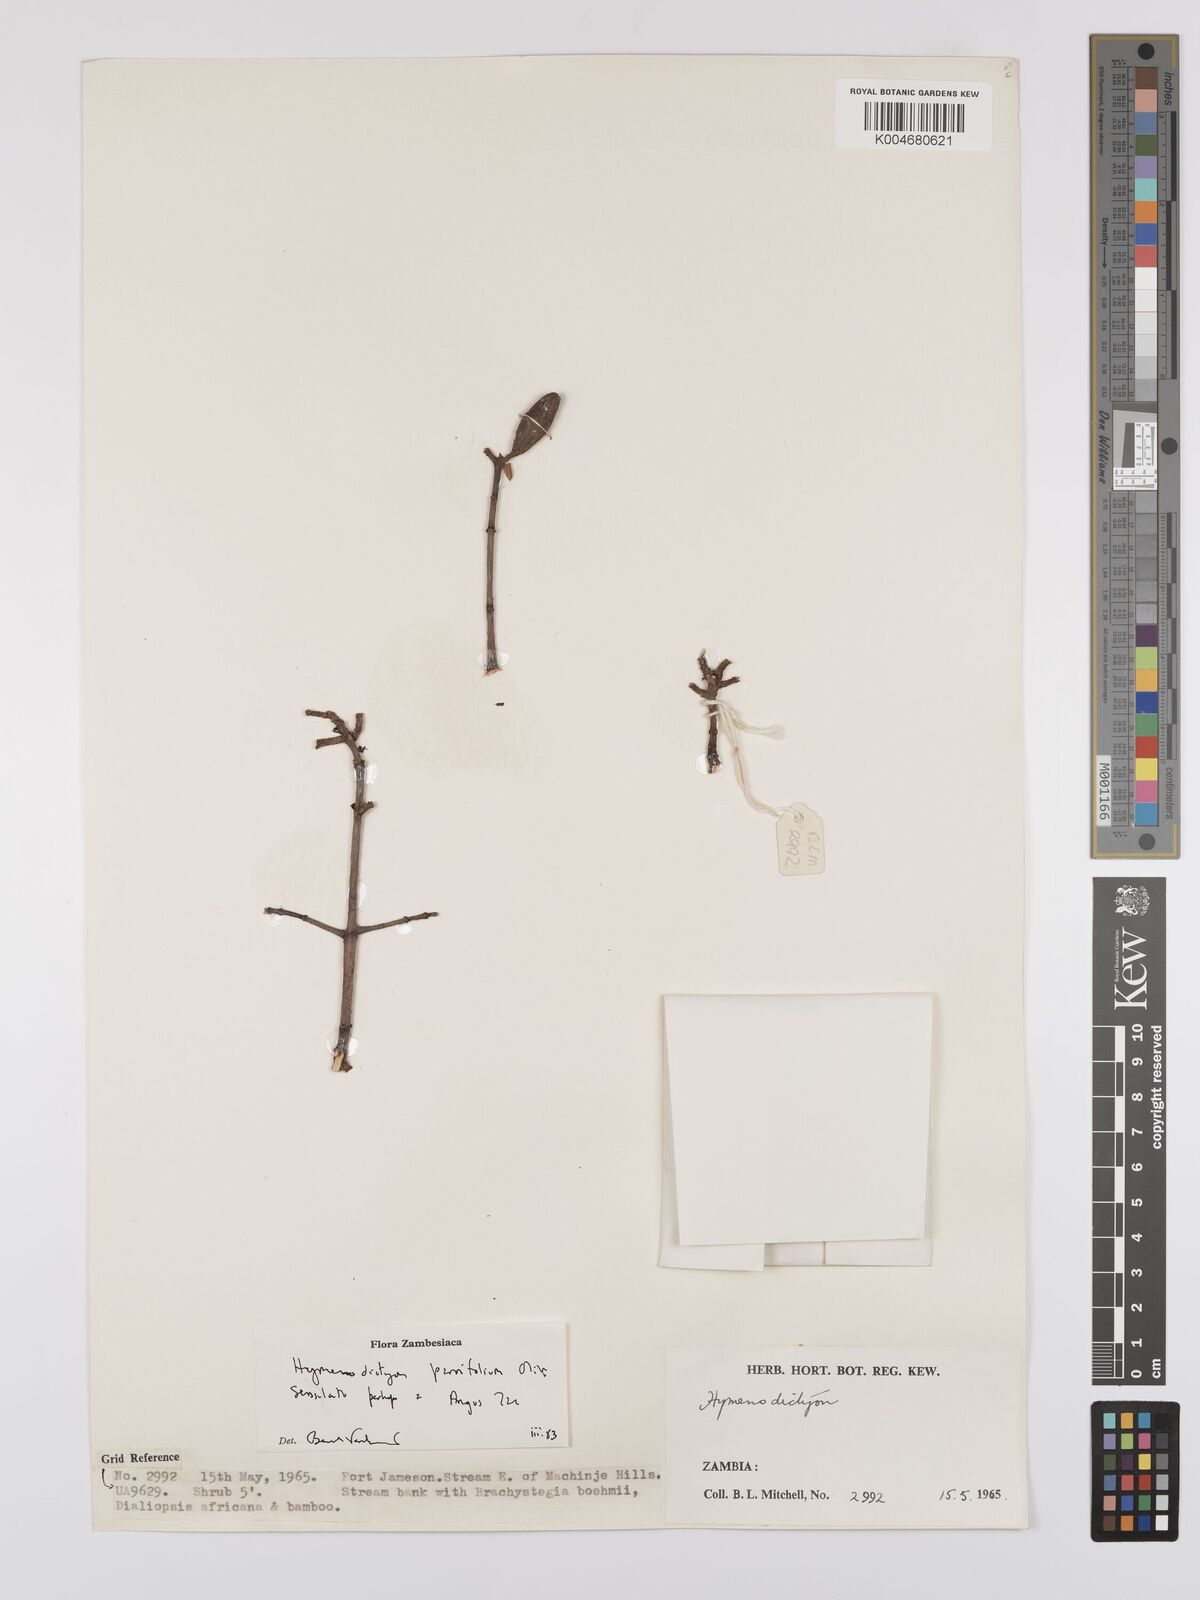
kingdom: Plantae
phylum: Tracheophyta
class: Magnoliopsida
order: Gentianales
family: Rubiaceae
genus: Hymenodictyon
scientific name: Hymenodictyon
